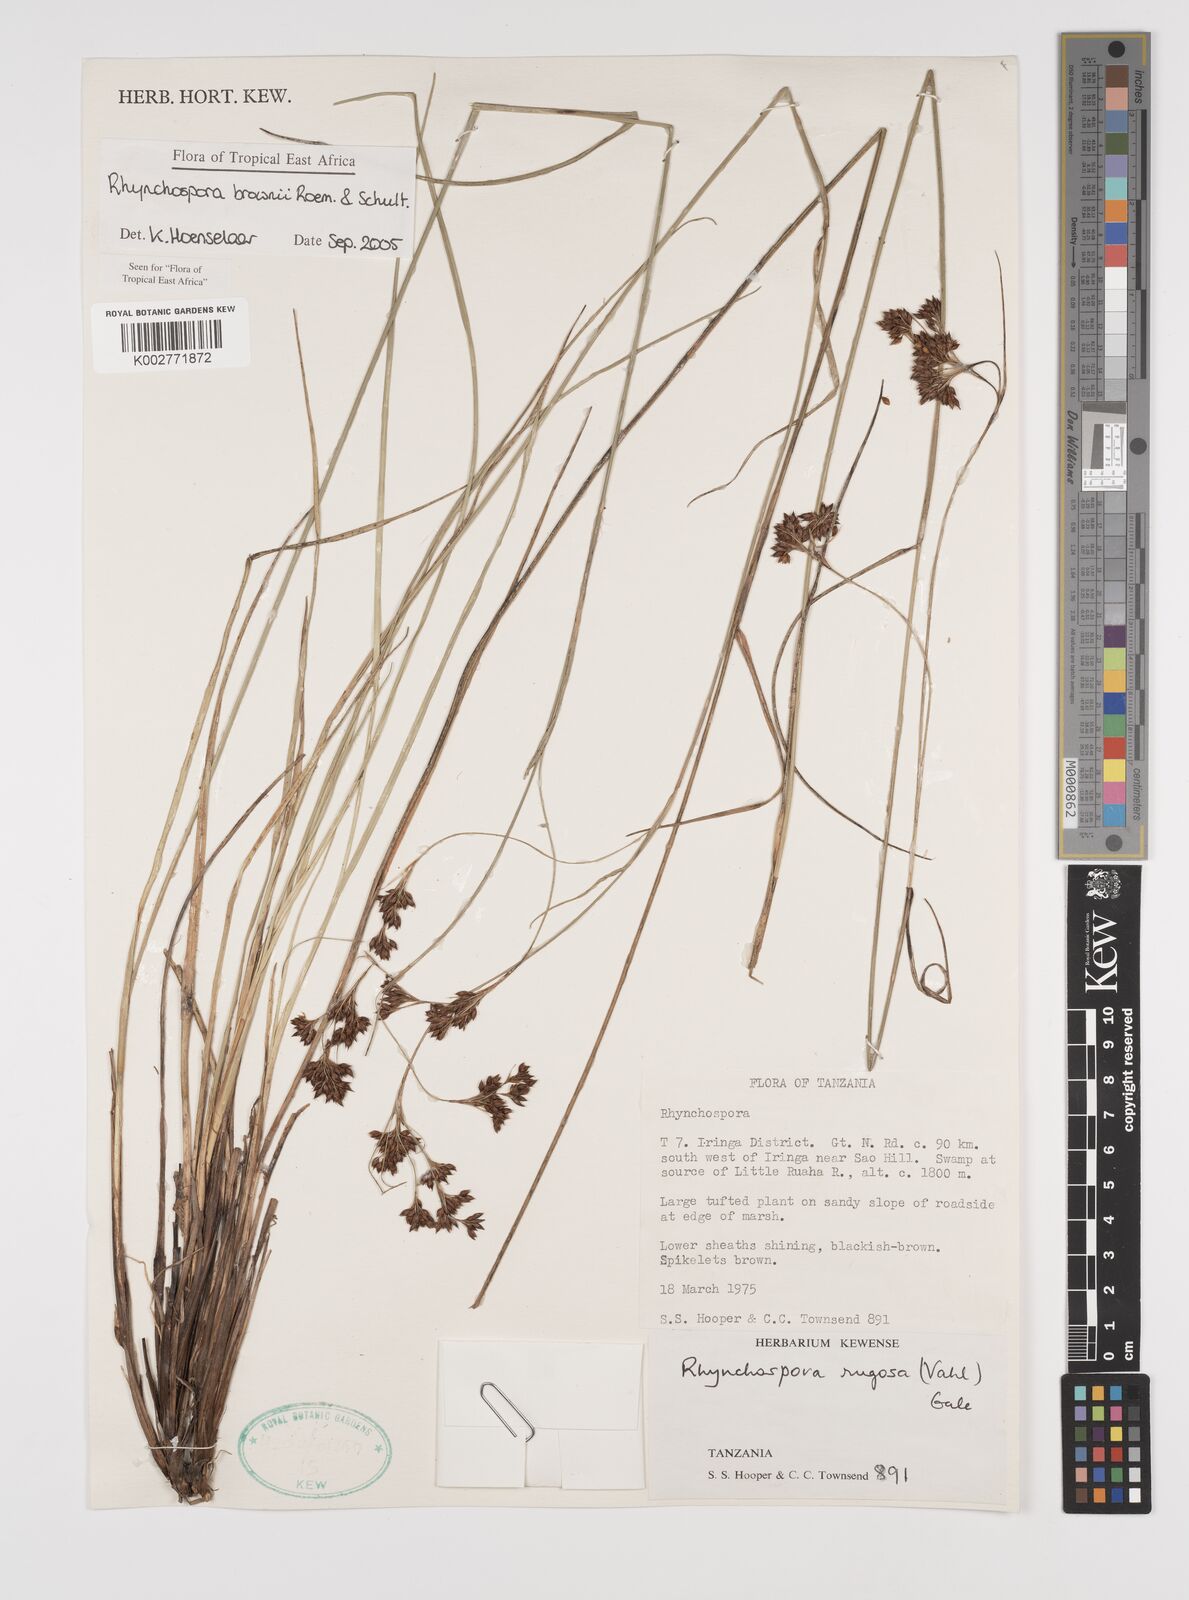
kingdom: Plantae
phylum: Tracheophyta
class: Liliopsida
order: Poales
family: Cyperaceae
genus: Rhynchospora
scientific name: Rhynchospora brownii
